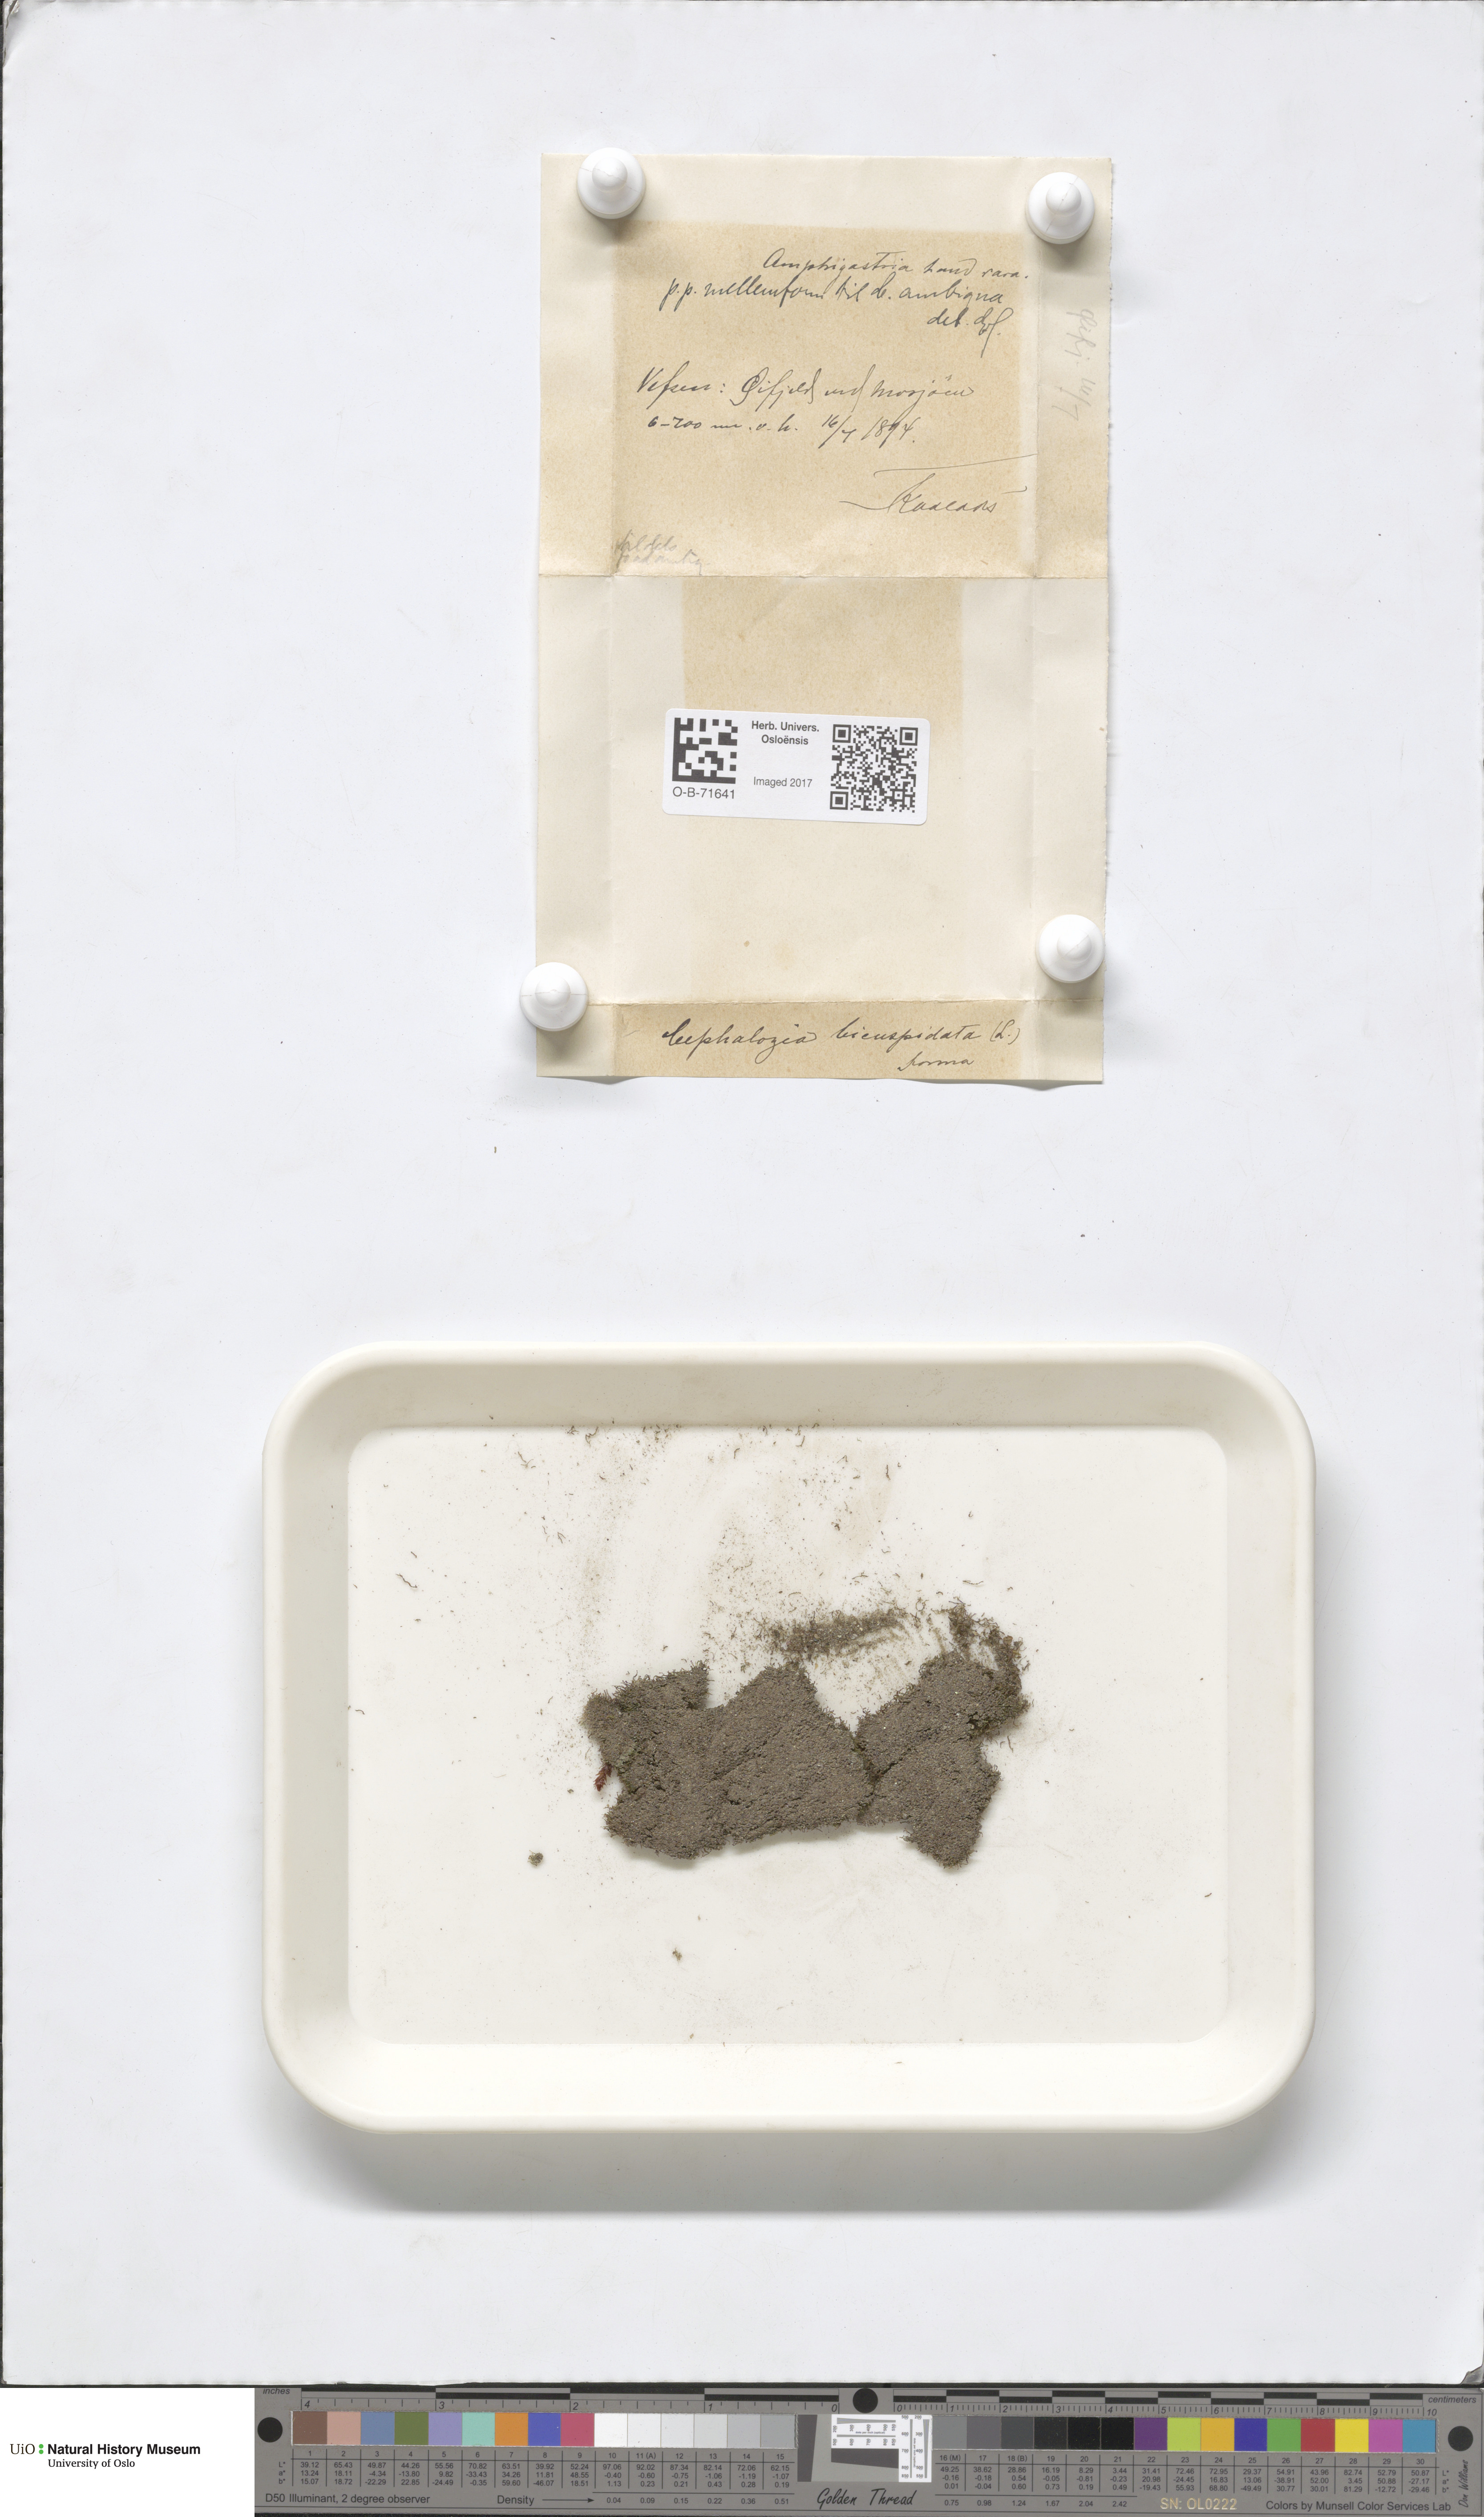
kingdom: Plantae
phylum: Marchantiophyta
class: Jungermanniopsida
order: Jungermanniales
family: Cephaloziaceae
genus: Cephalozia
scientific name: Cephalozia bicuspidata
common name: Two-horned pincerwort
